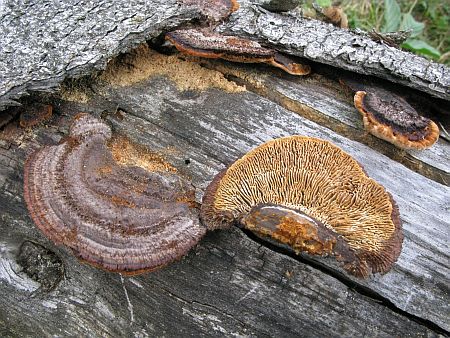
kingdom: Fungi
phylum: Basidiomycota
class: Agaricomycetes
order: Gloeophyllales
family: Gloeophyllaceae
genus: Gloeophyllum
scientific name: Gloeophyllum sepiarium
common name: fyrre-korkhat
